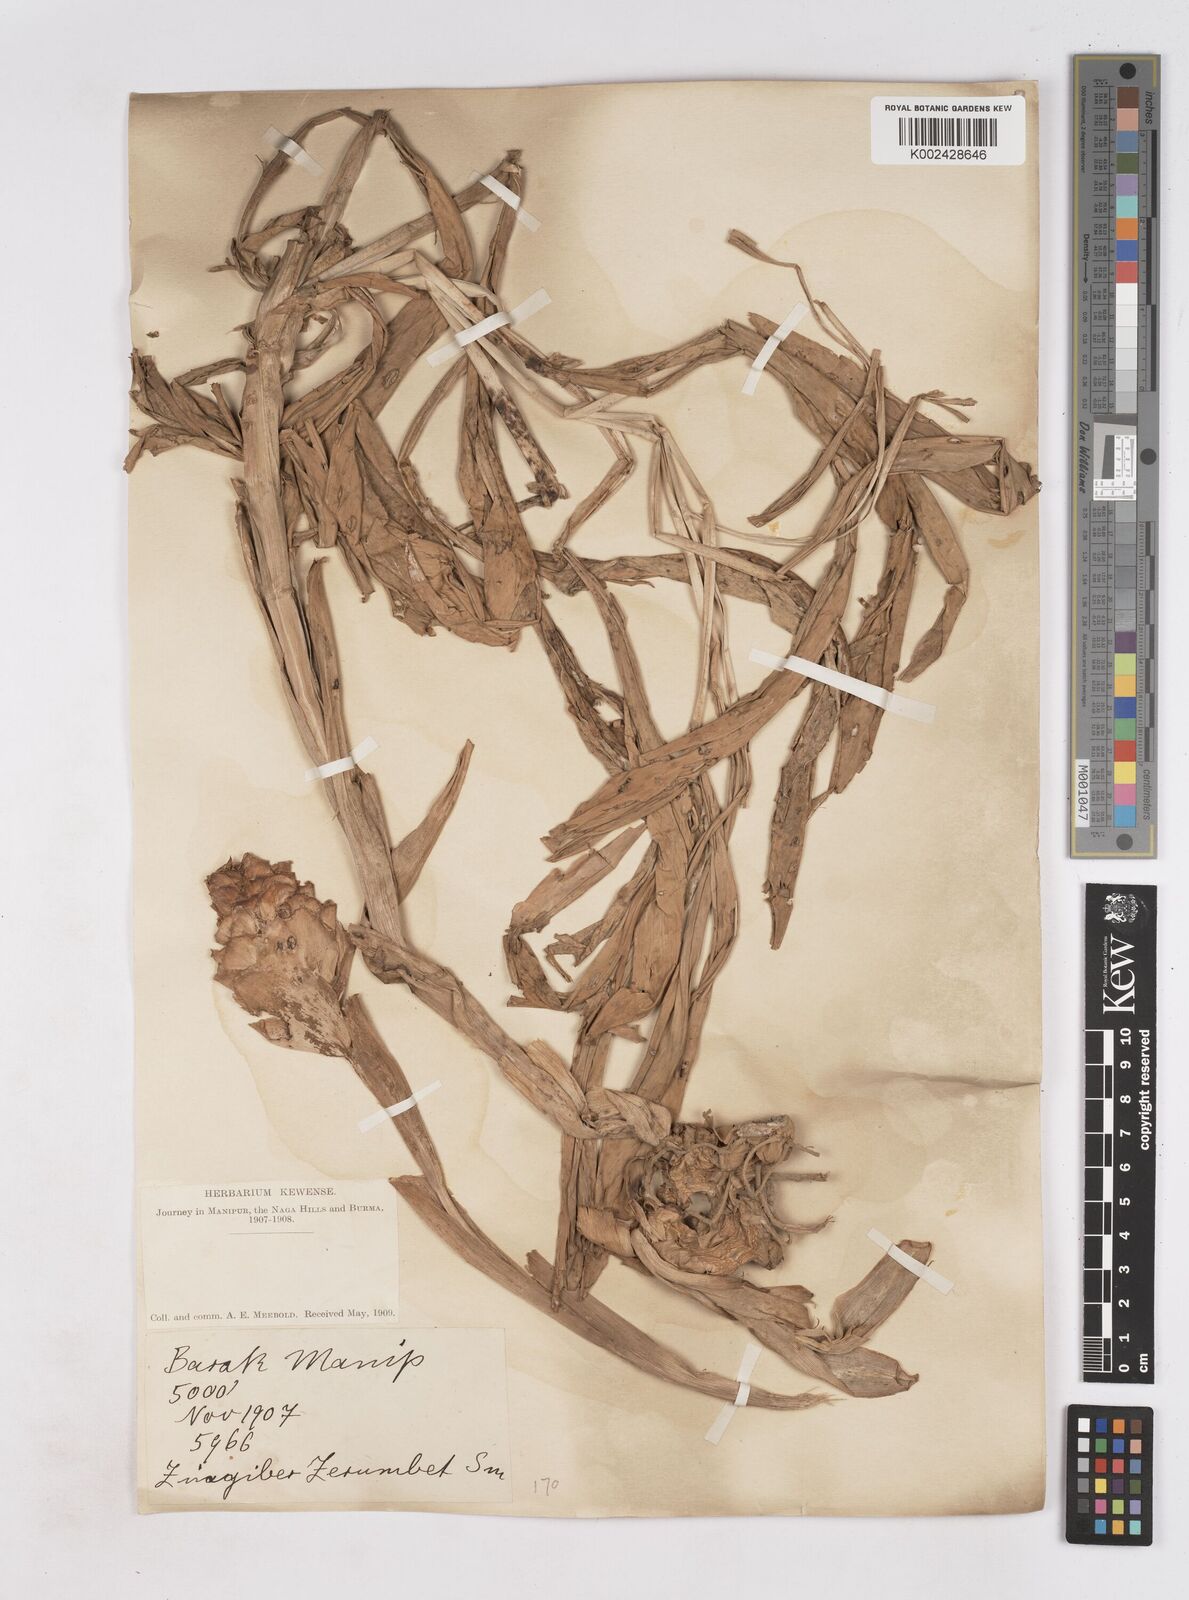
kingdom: Plantae
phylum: Tracheophyta
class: Liliopsida
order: Zingiberales
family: Zingiberaceae
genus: Zingiber
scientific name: Zingiber zerumbet
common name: Bitter ginger
